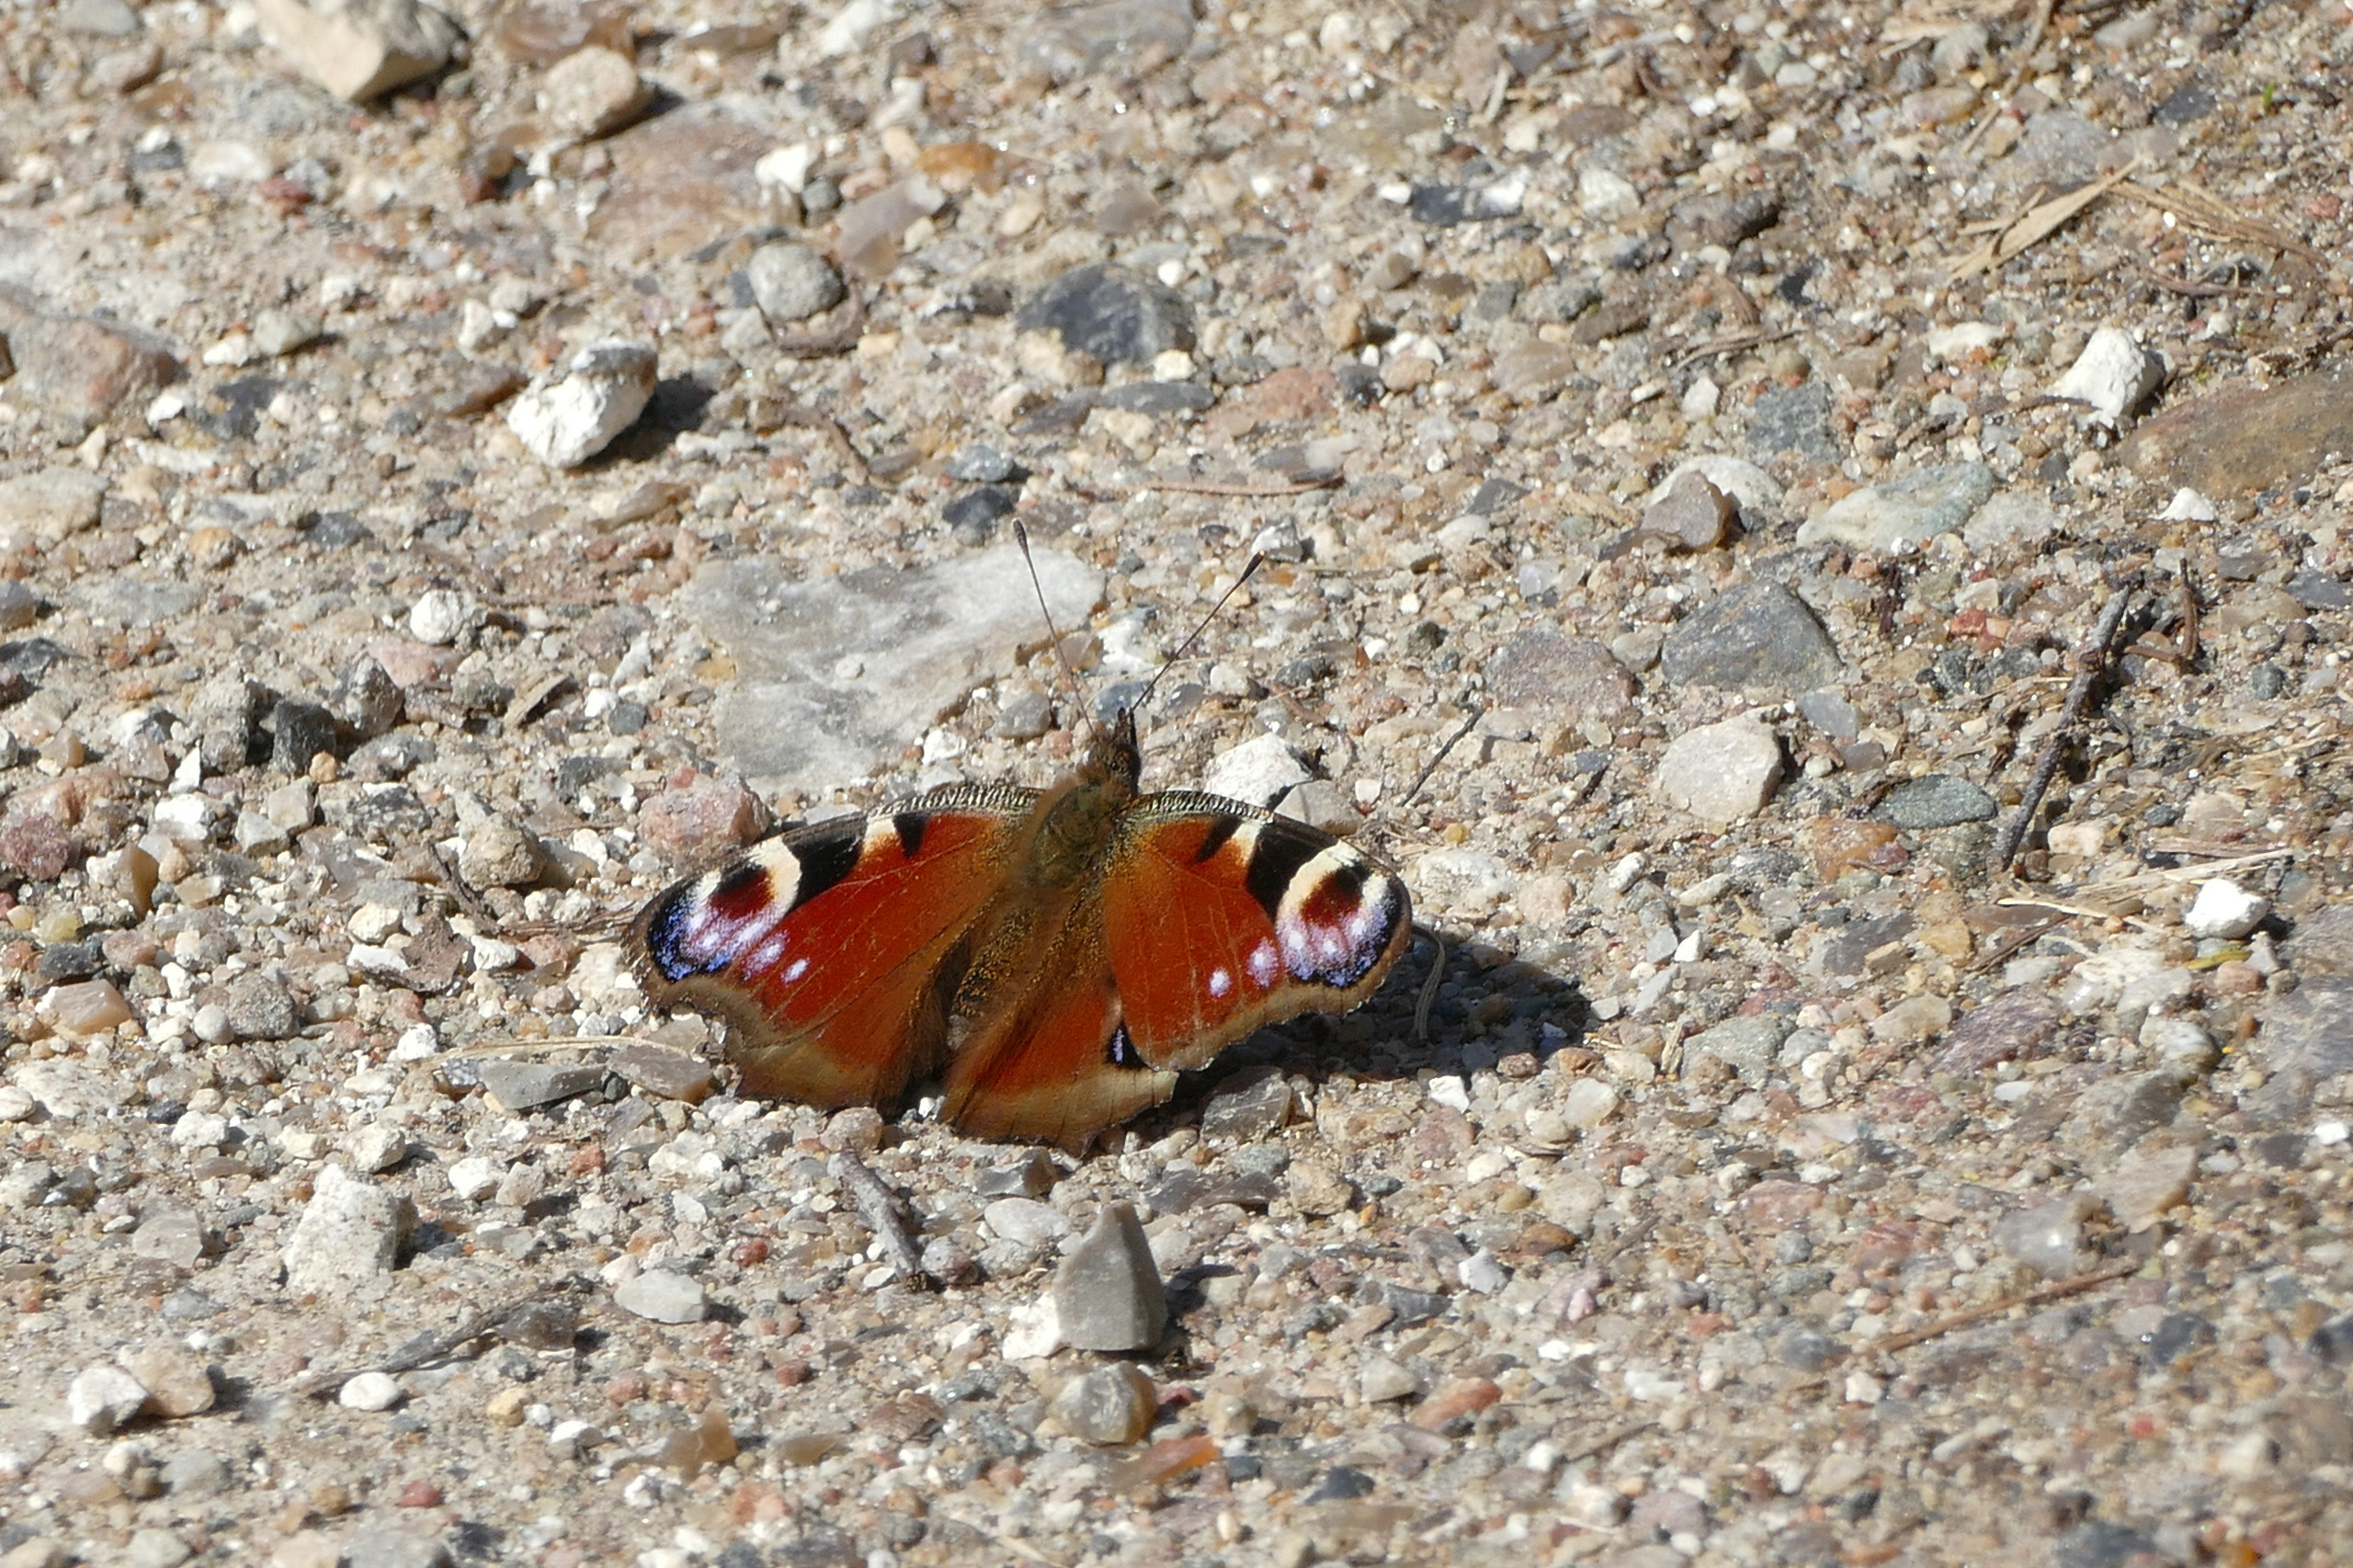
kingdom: Animalia
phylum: Arthropoda
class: Insecta
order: Lepidoptera
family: Nymphalidae
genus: Aglais
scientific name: Aglais io
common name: Dagpåfugleøje
